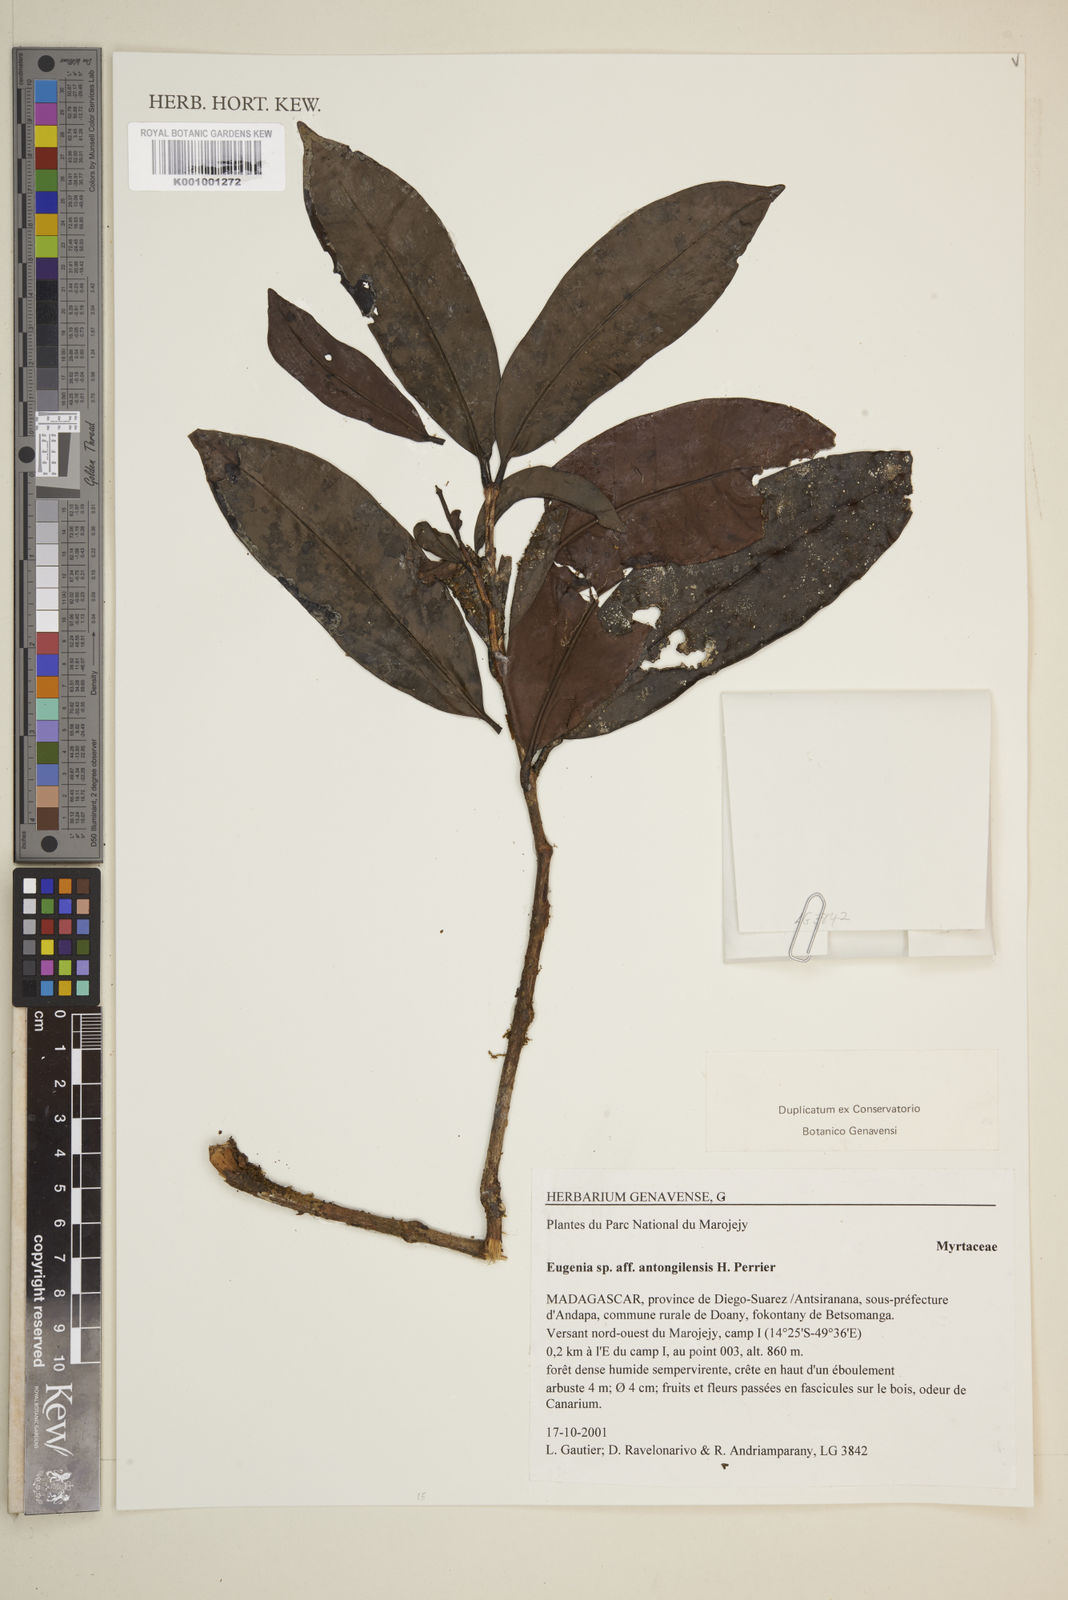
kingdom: Plantae
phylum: Tracheophyta
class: Magnoliopsida
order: Myrtales
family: Myrtaceae
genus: Eugenia
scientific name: Eugenia antongilensis
